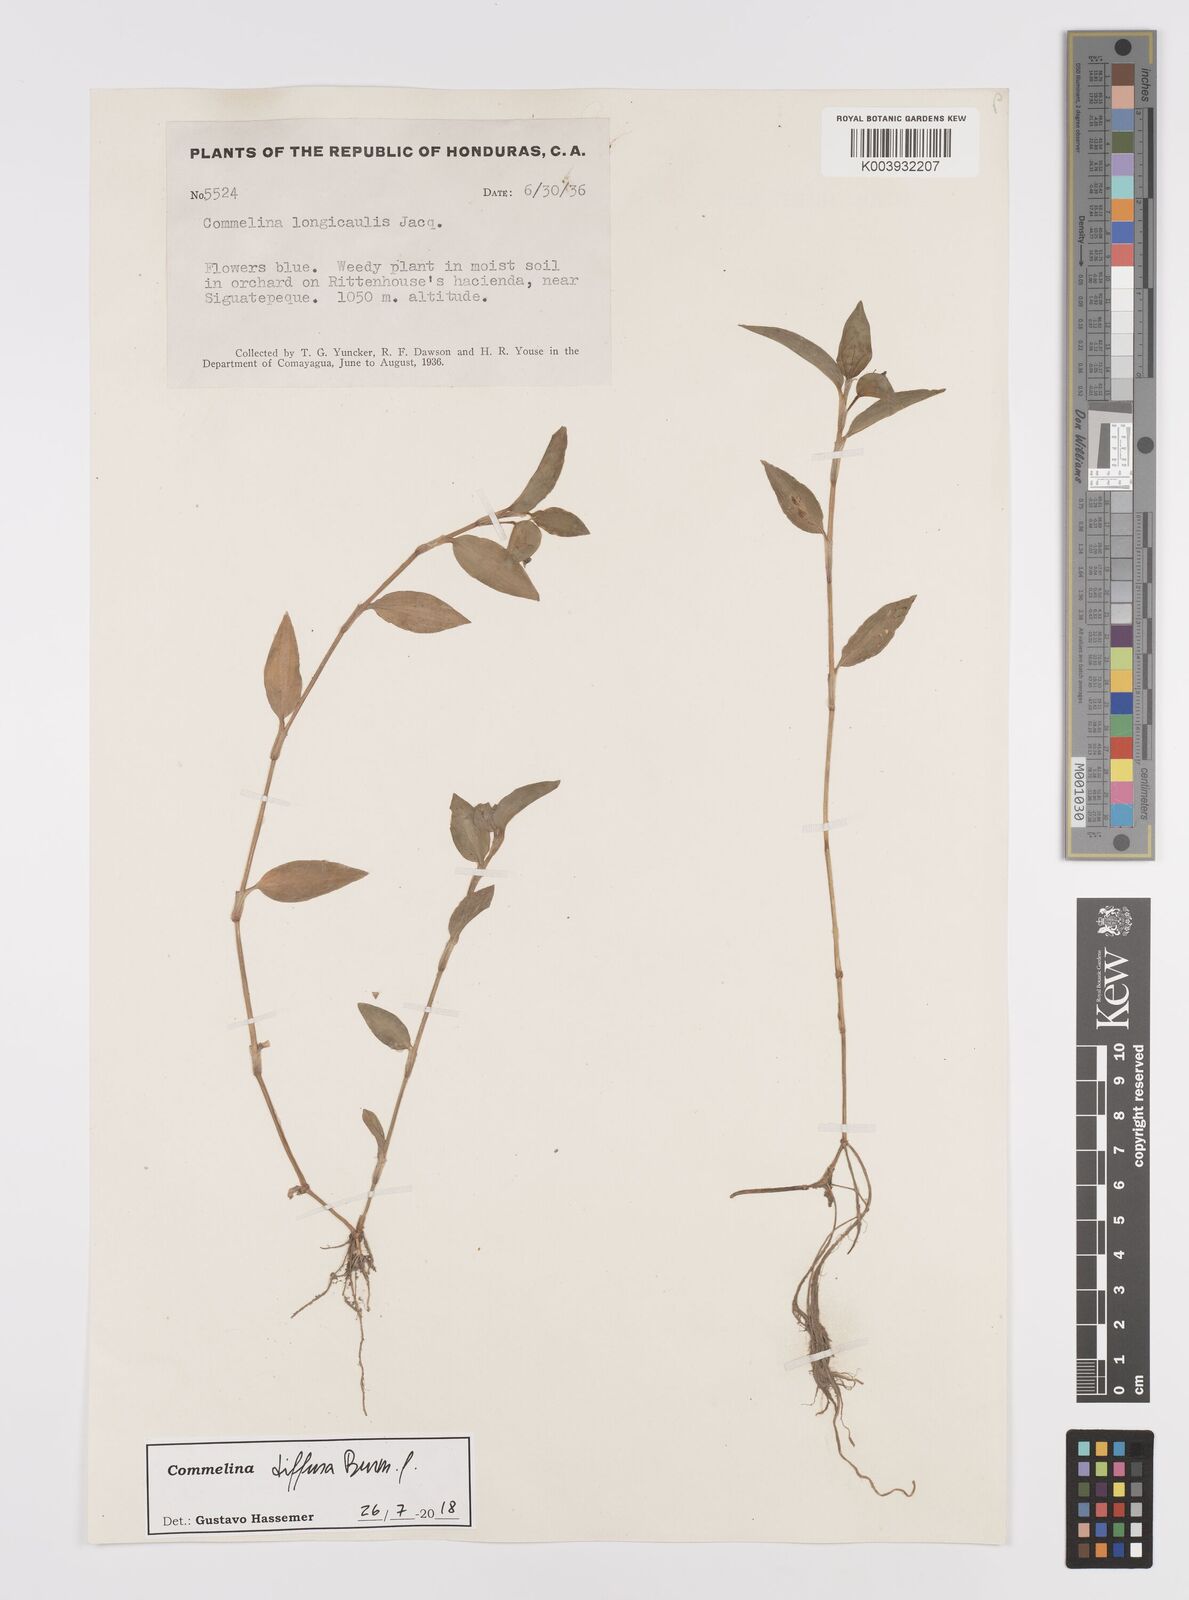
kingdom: Plantae
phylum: Tracheophyta
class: Liliopsida
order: Commelinales
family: Commelinaceae
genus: Commelina
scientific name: Commelina diffusa
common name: Climbing dayflower
